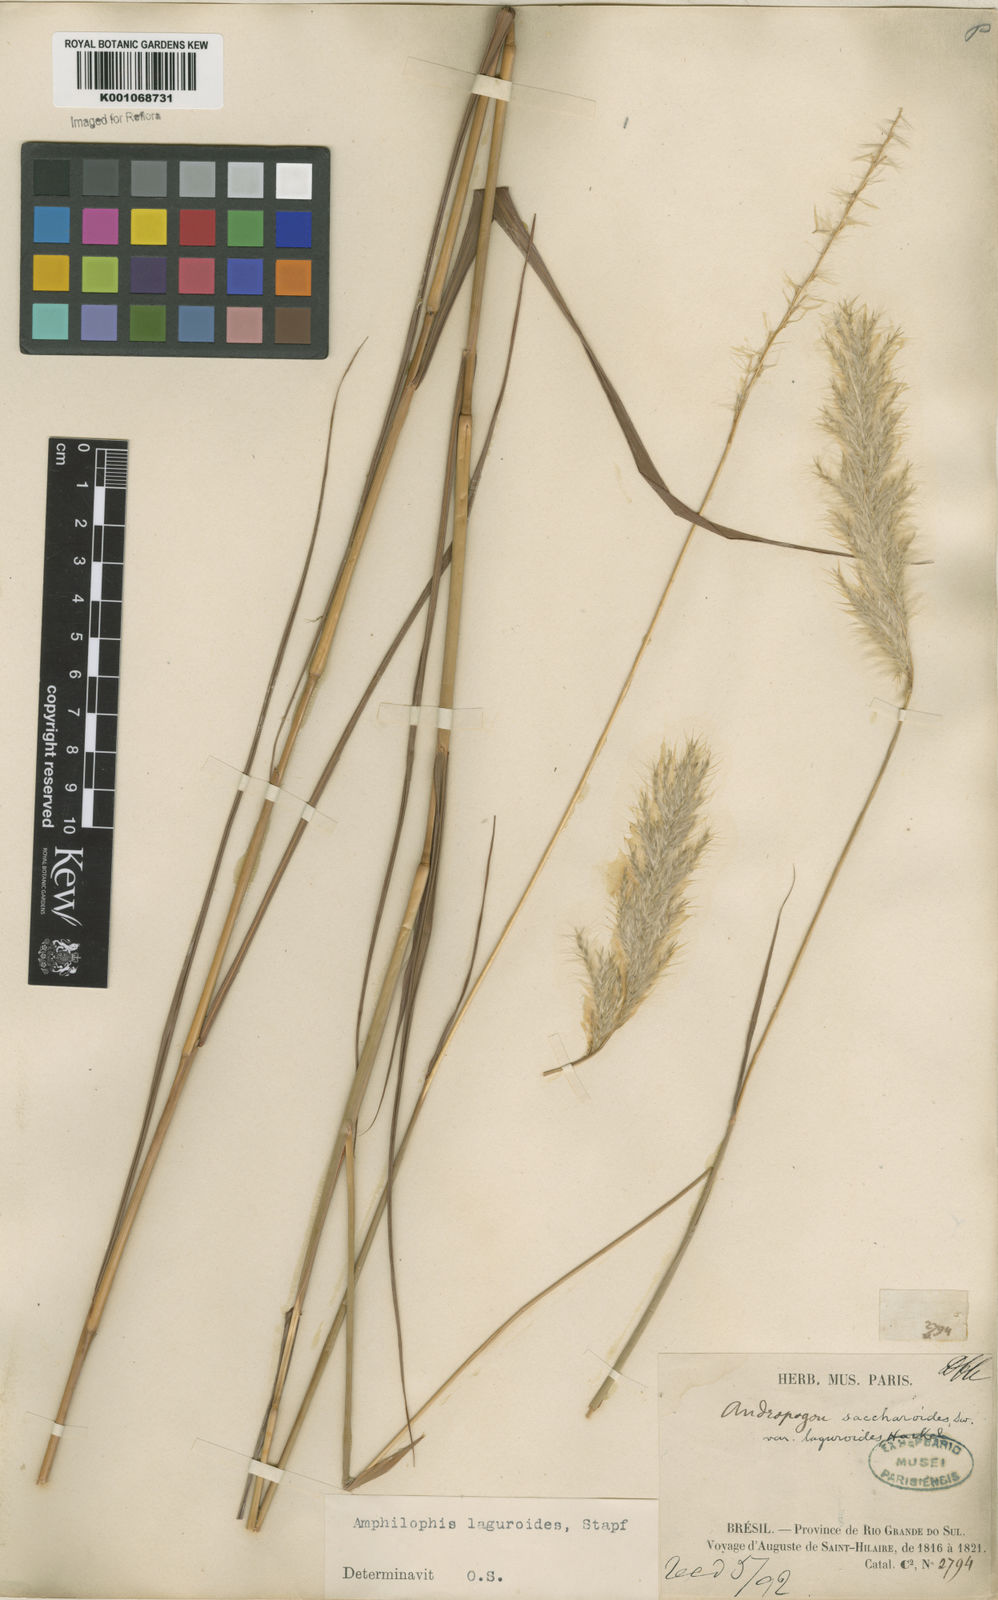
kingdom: Plantae
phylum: Tracheophyta
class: Liliopsida
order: Poales
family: Poaceae
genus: Bothriochloa
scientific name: Bothriochloa laguroides
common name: Silver bluestem
